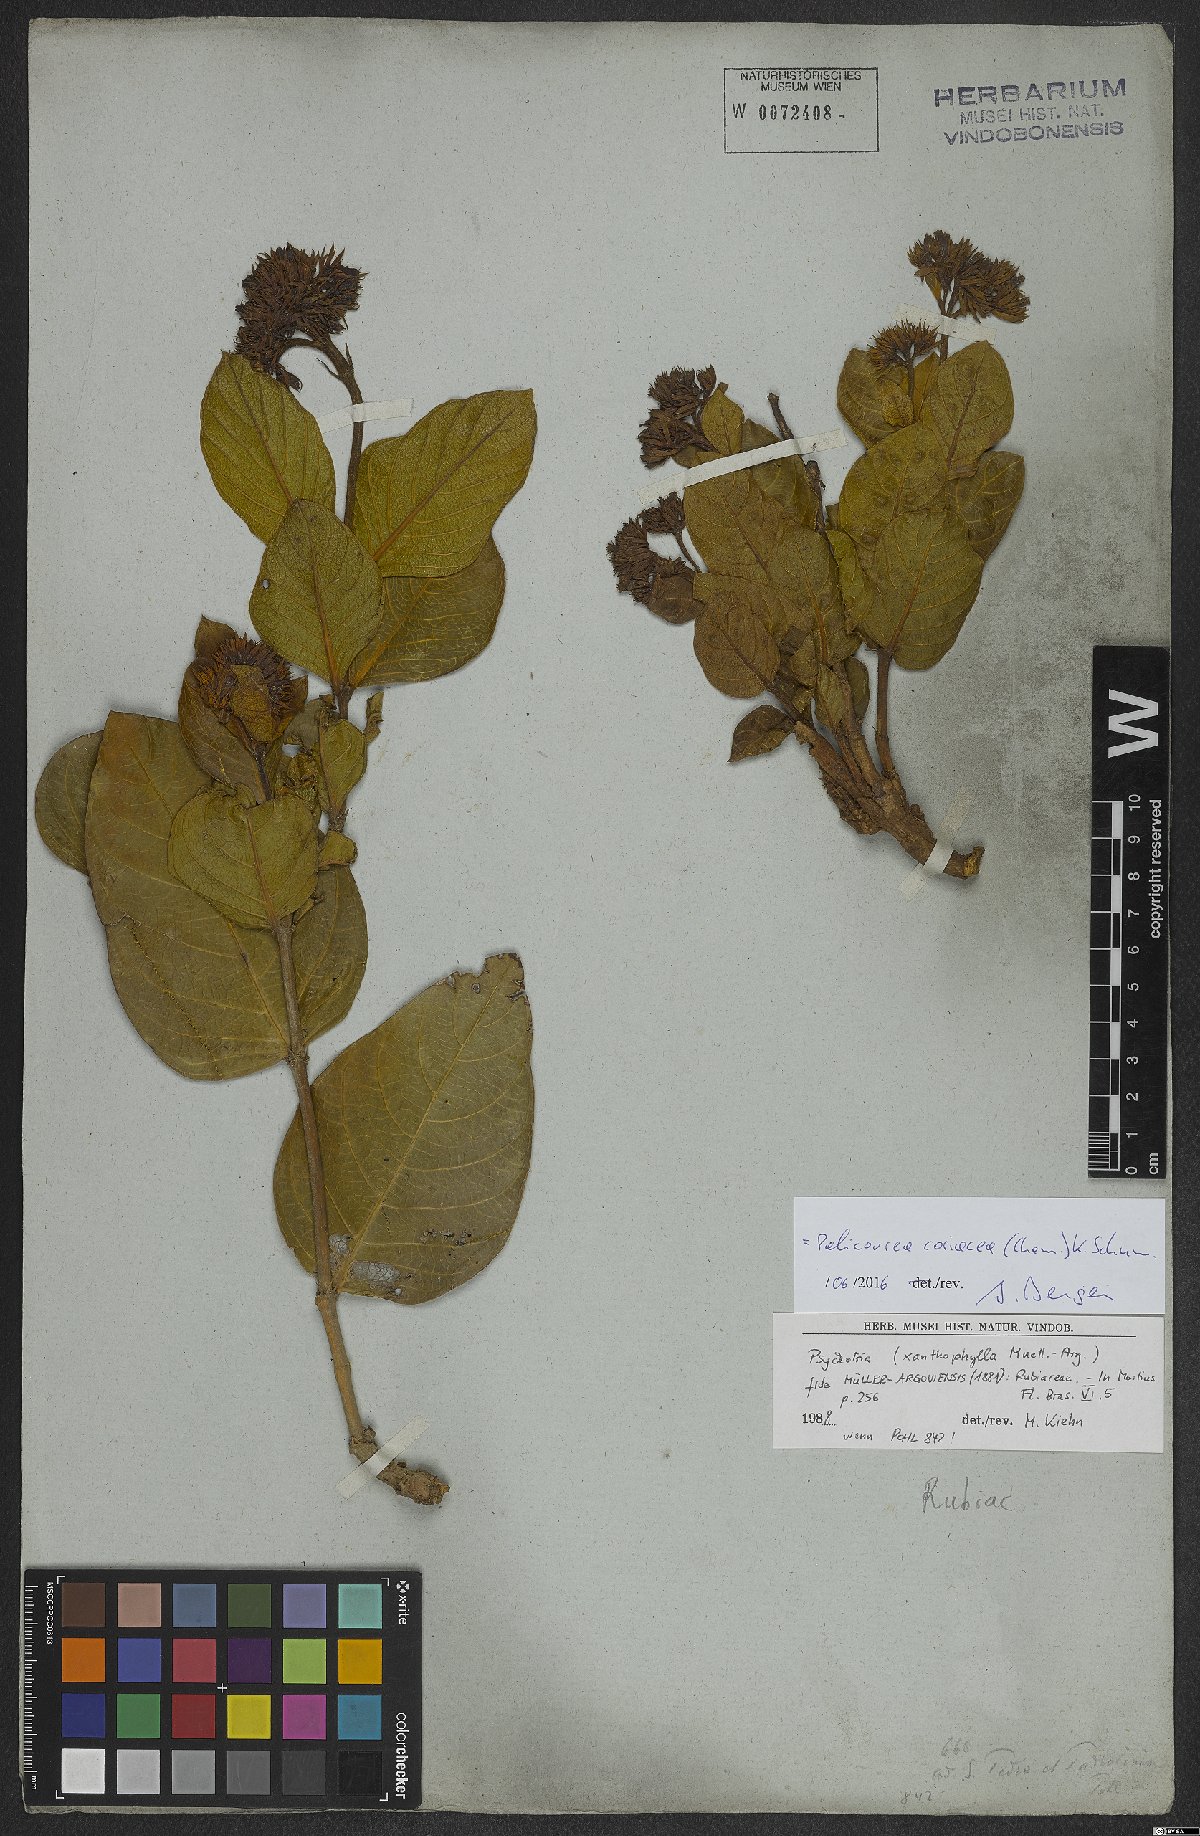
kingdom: Plantae
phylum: Tracheophyta
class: Magnoliopsida
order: Gentianales
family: Rubiaceae
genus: Palicourea
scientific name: Palicourea coriacea
